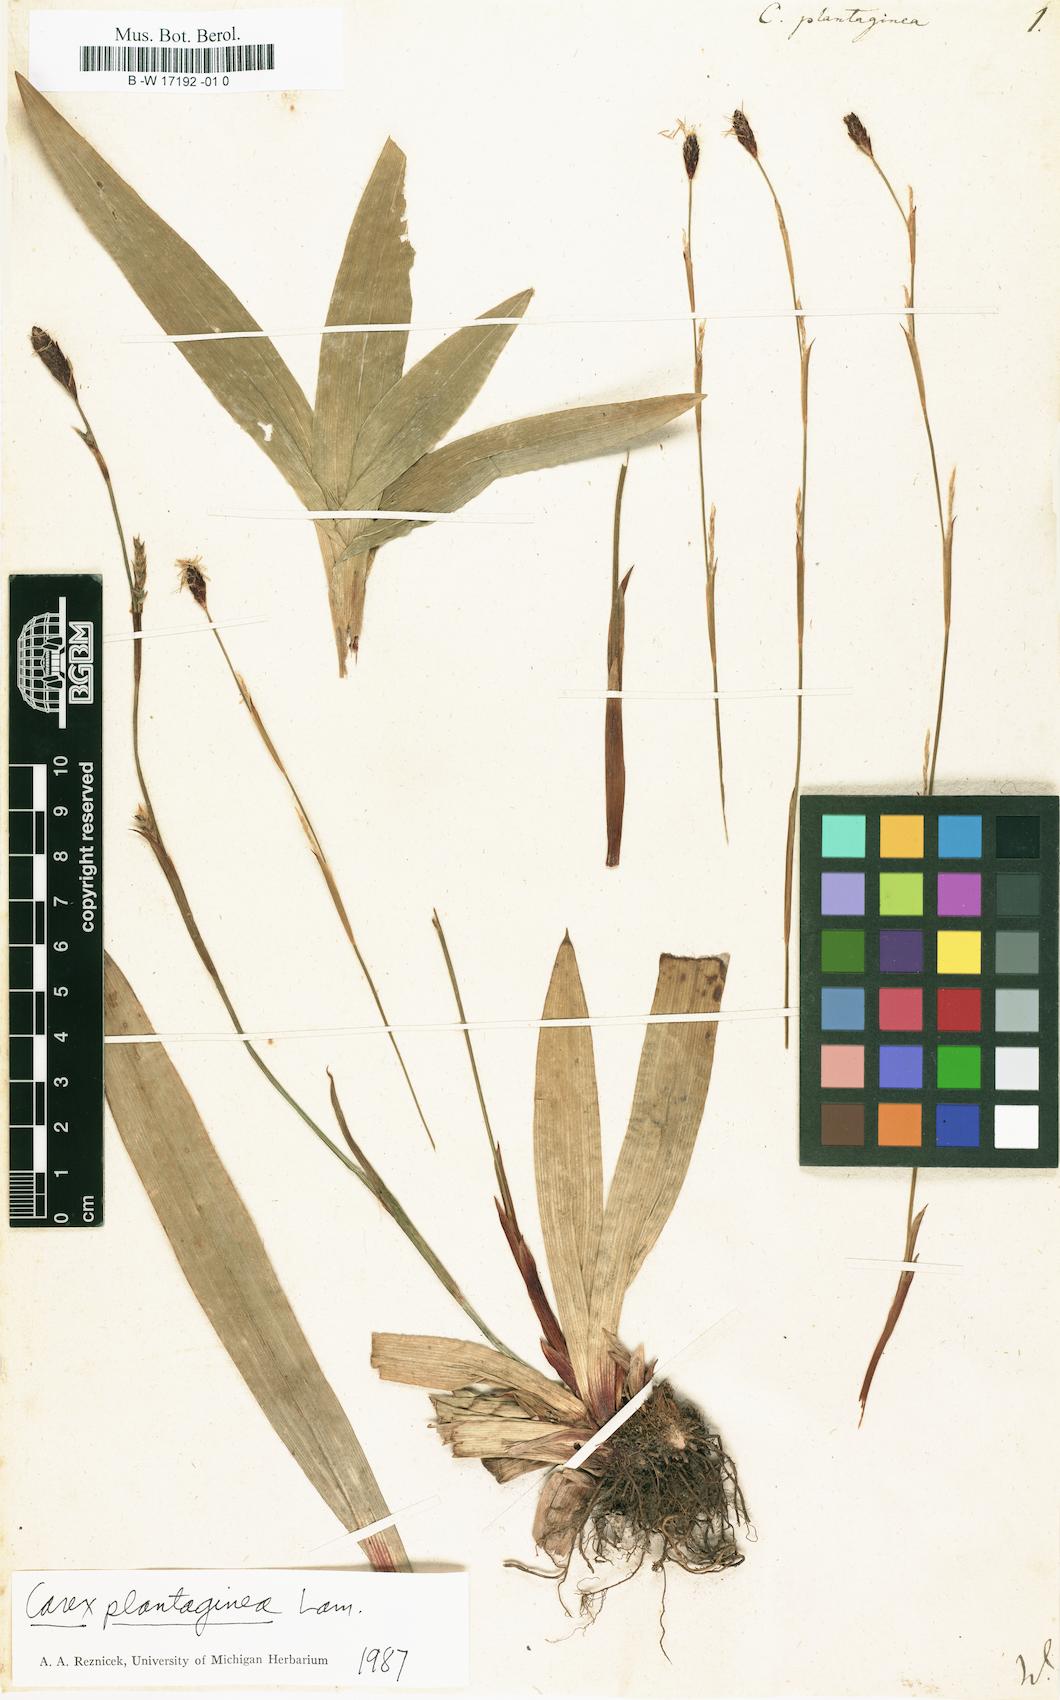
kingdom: Plantae
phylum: Tracheophyta
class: Liliopsida
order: Poales
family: Cyperaceae
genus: Carex
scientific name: Carex plantaginea
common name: Plantain-leaved sedge
